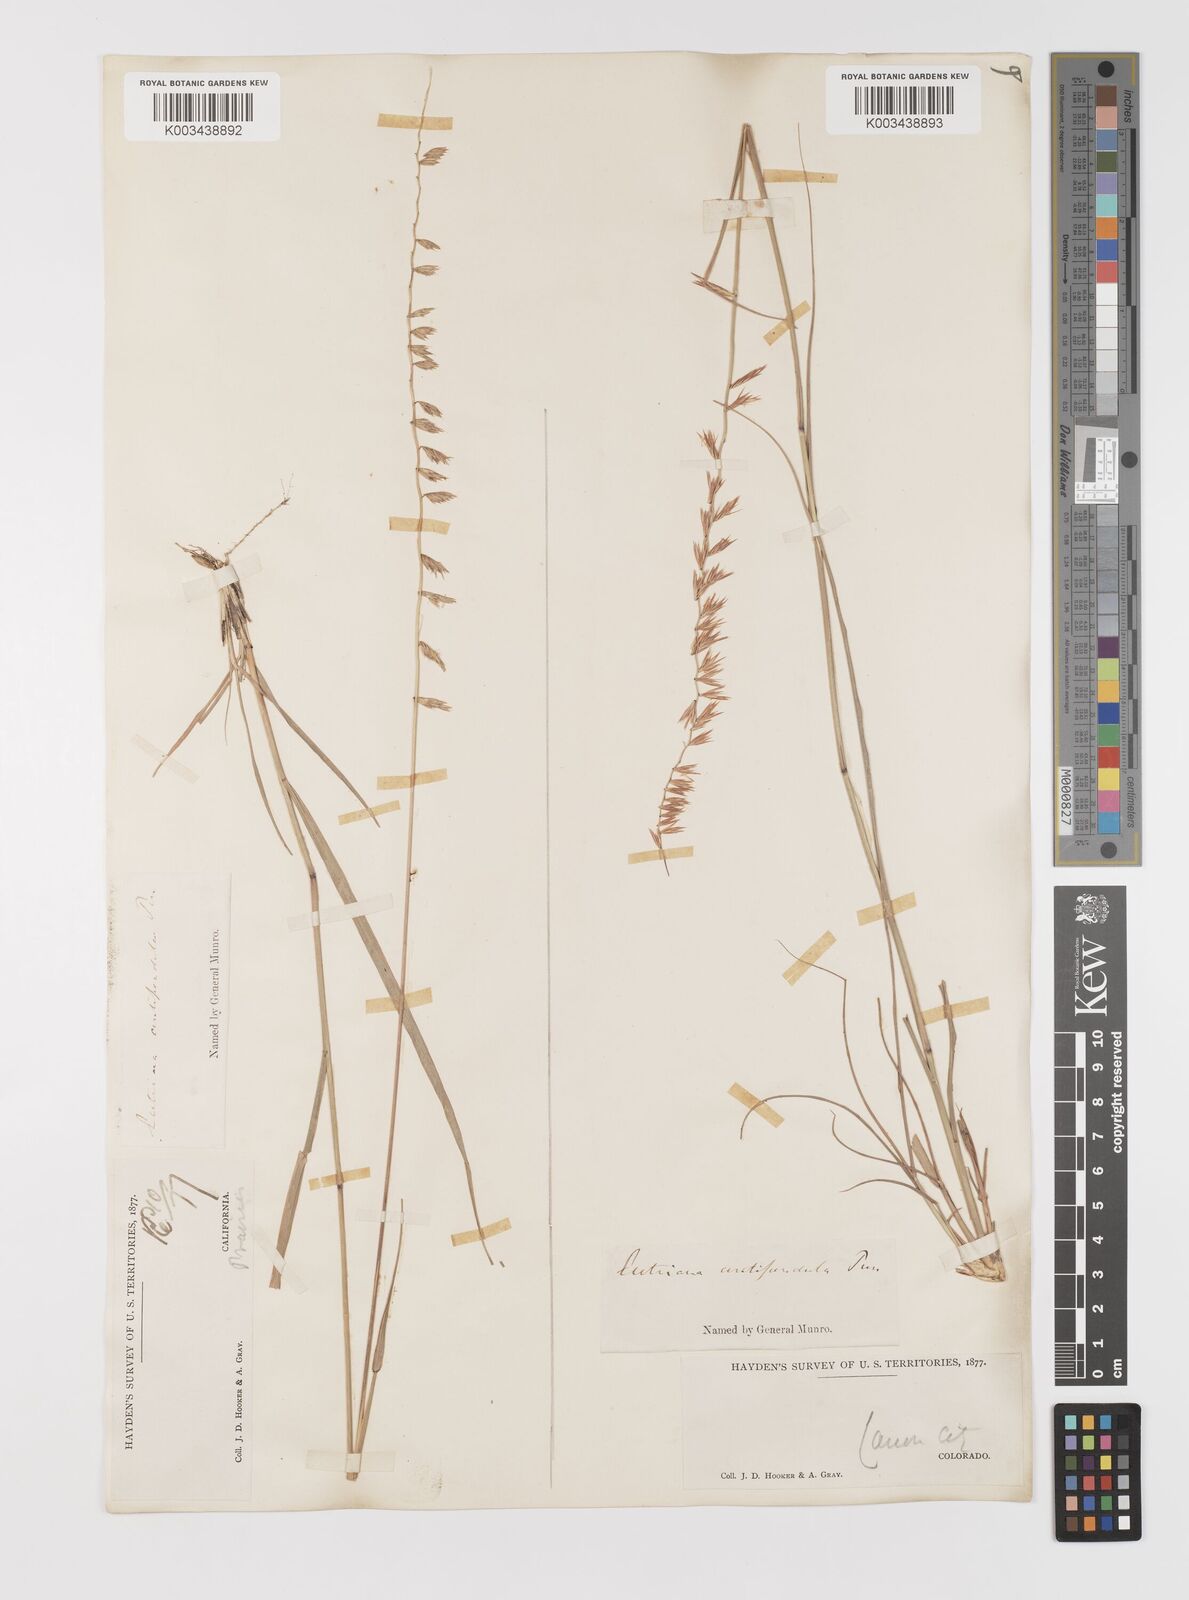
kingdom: Plantae
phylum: Tracheophyta
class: Liliopsida
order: Poales
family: Poaceae
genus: Bouteloua
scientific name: Bouteloua curtipendula
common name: Side-oats grama
